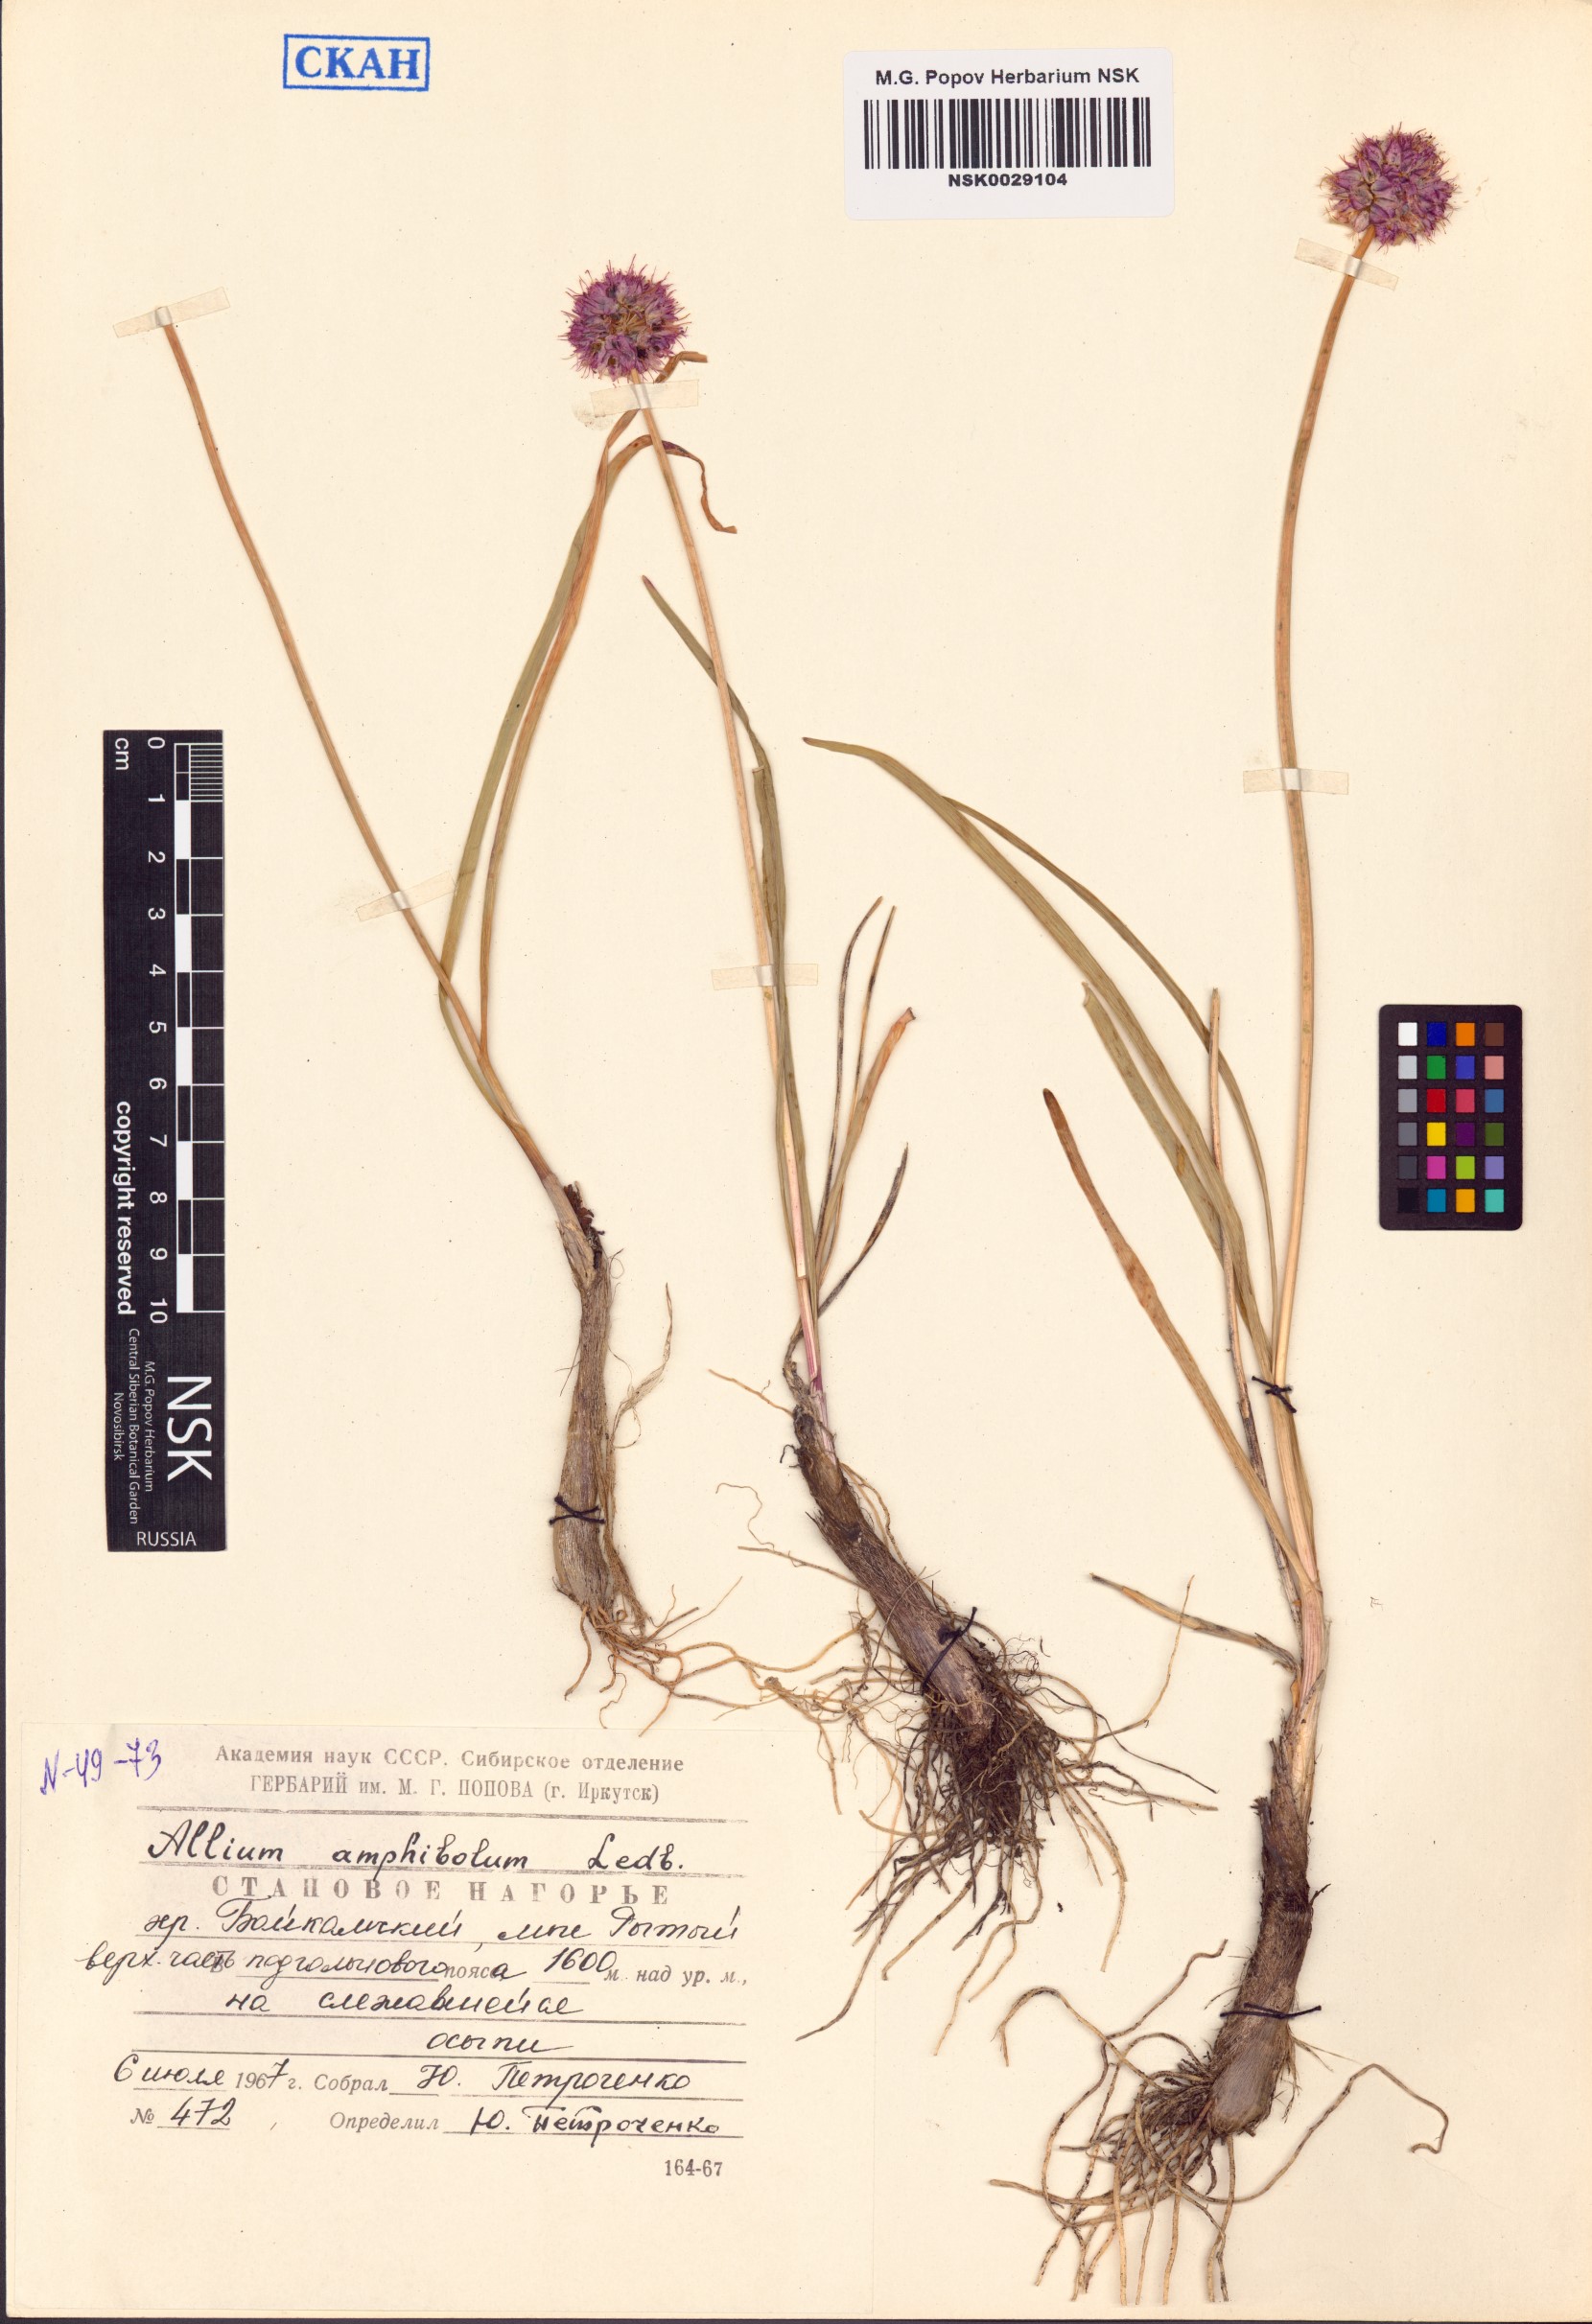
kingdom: Plantae
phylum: Tracheophyta
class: Liliopsida
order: Asparagales
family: Amaryllidaceae
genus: Allium
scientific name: Allium amphibolum
